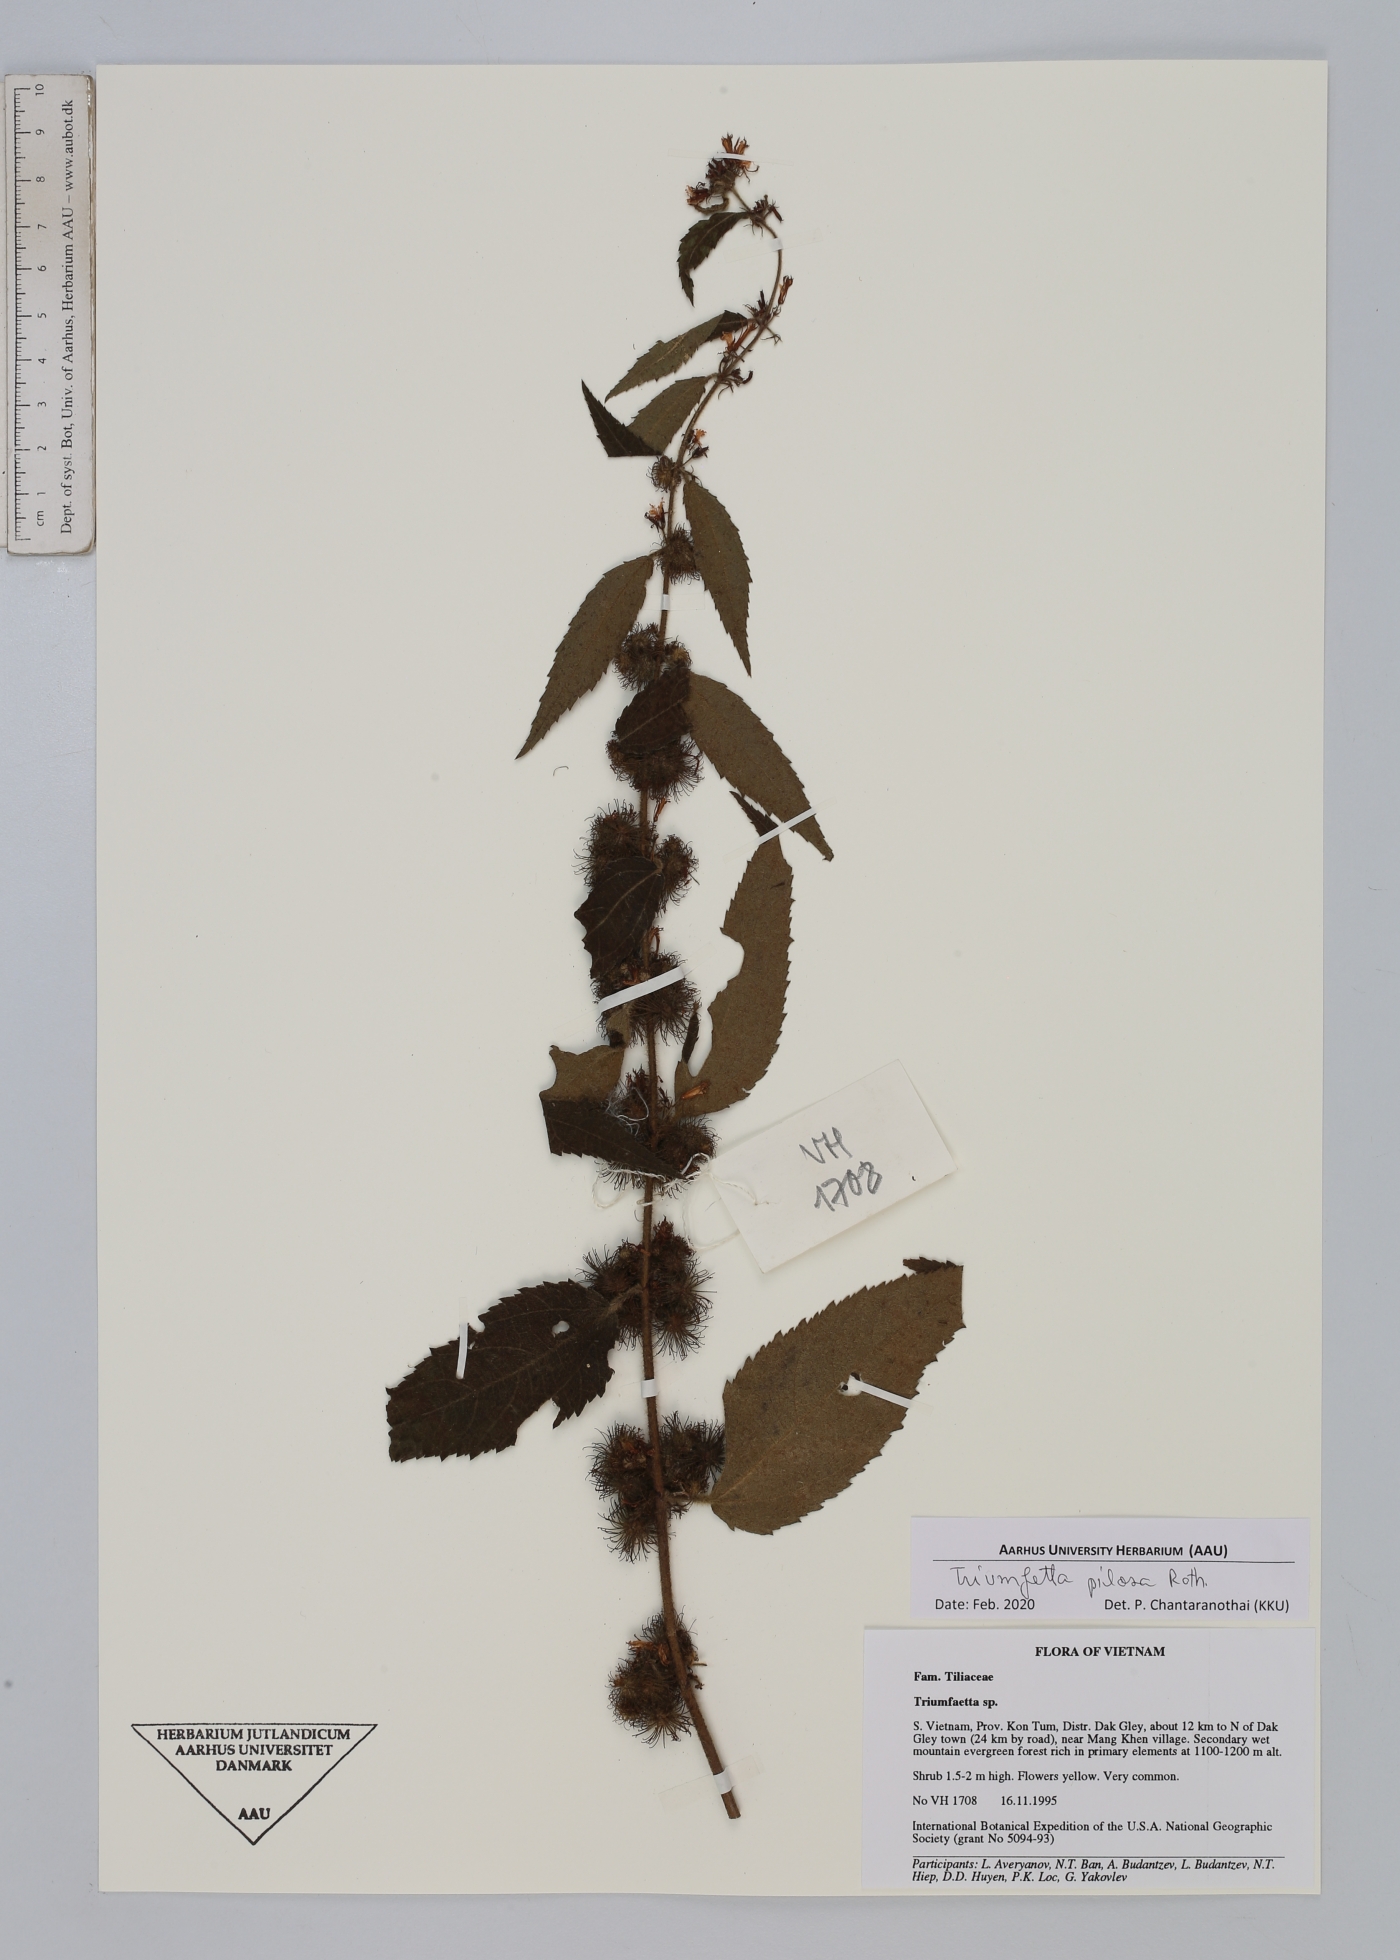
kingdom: Plantae
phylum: Tracheophyta
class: Magnoliopsida
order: Malvales
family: Malvaceae
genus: Triumfetta
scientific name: Triumfetta pilosa
